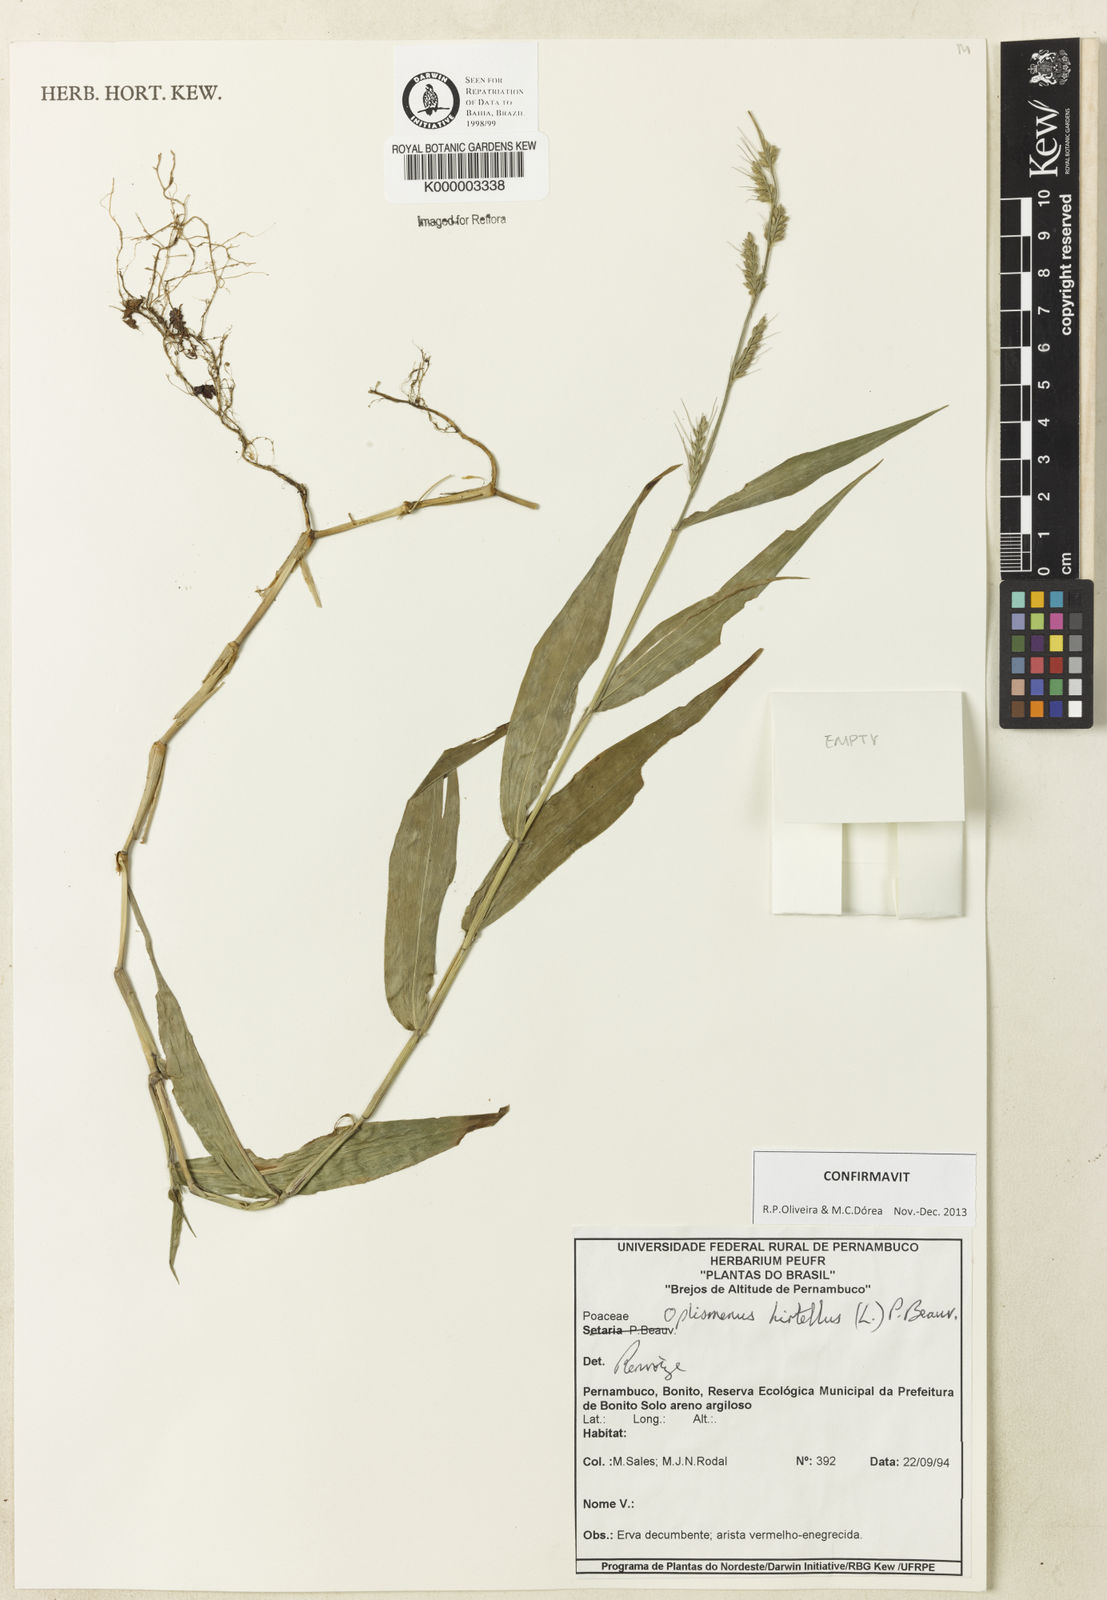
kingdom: Plantae
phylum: Tracheophyta
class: Liliopsida
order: Poales
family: Poaceae
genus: Oplismenus
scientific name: Oplismenus hirtellus
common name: Basketgrass
